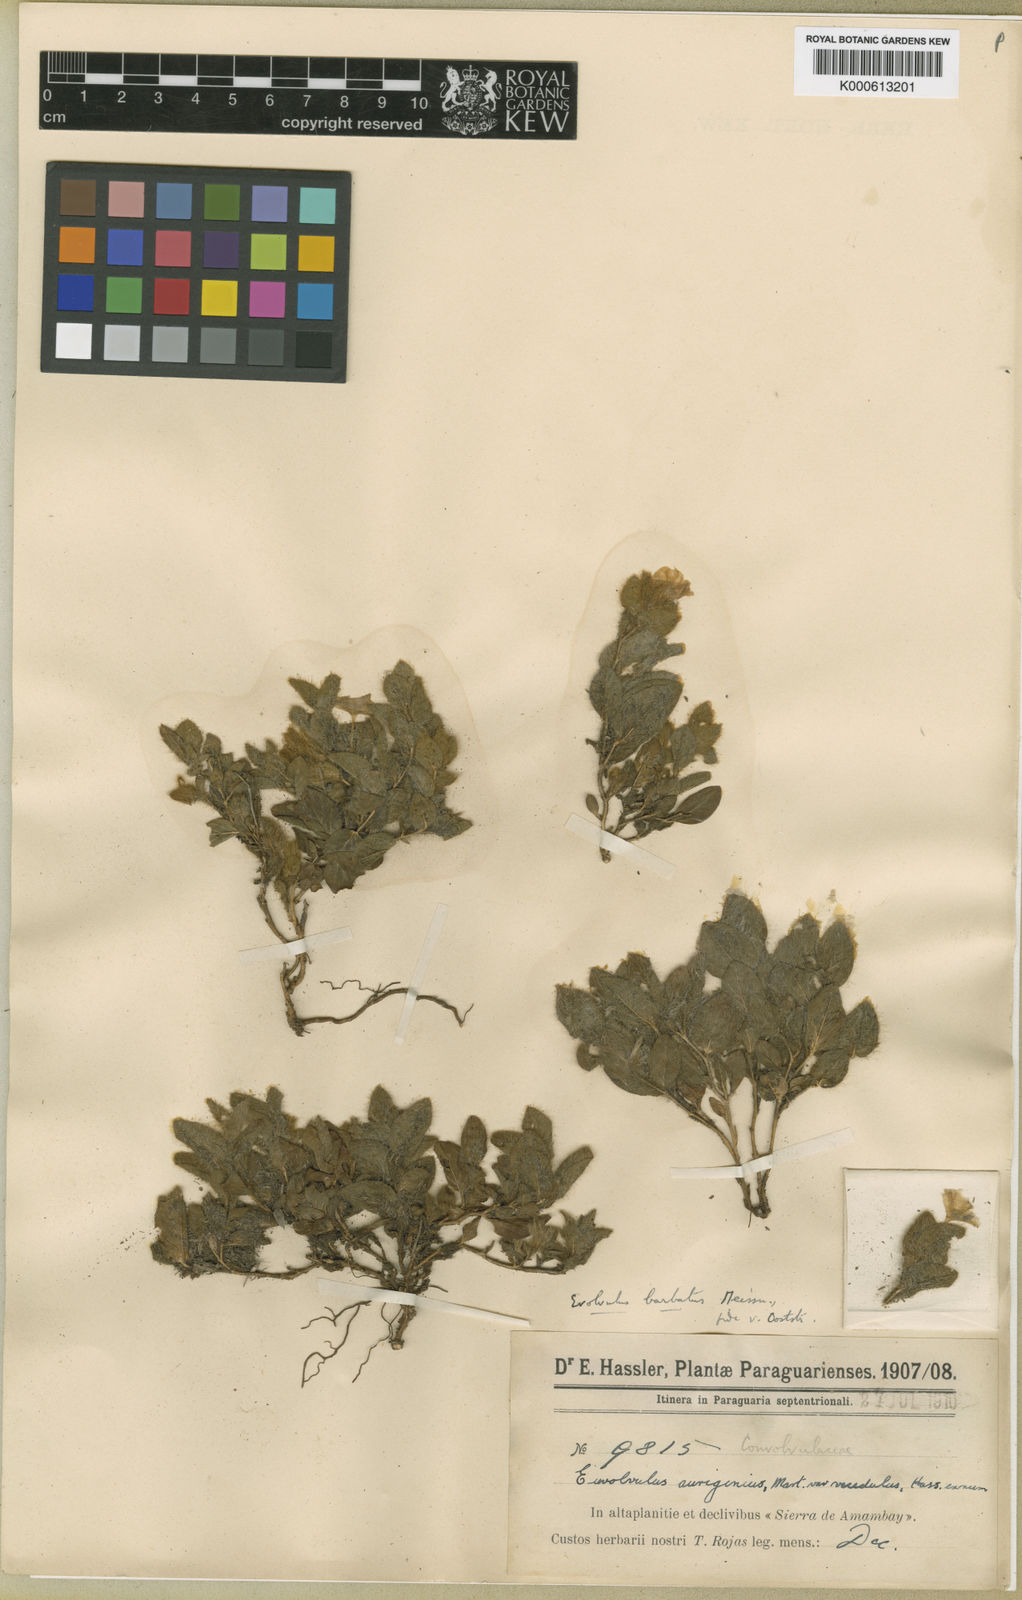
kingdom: Plantae
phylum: Tracheophyta
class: Magnoliopsida
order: Solanales
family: Convolvulaceae
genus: Evolvulus
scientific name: Evolvulus barbatus
